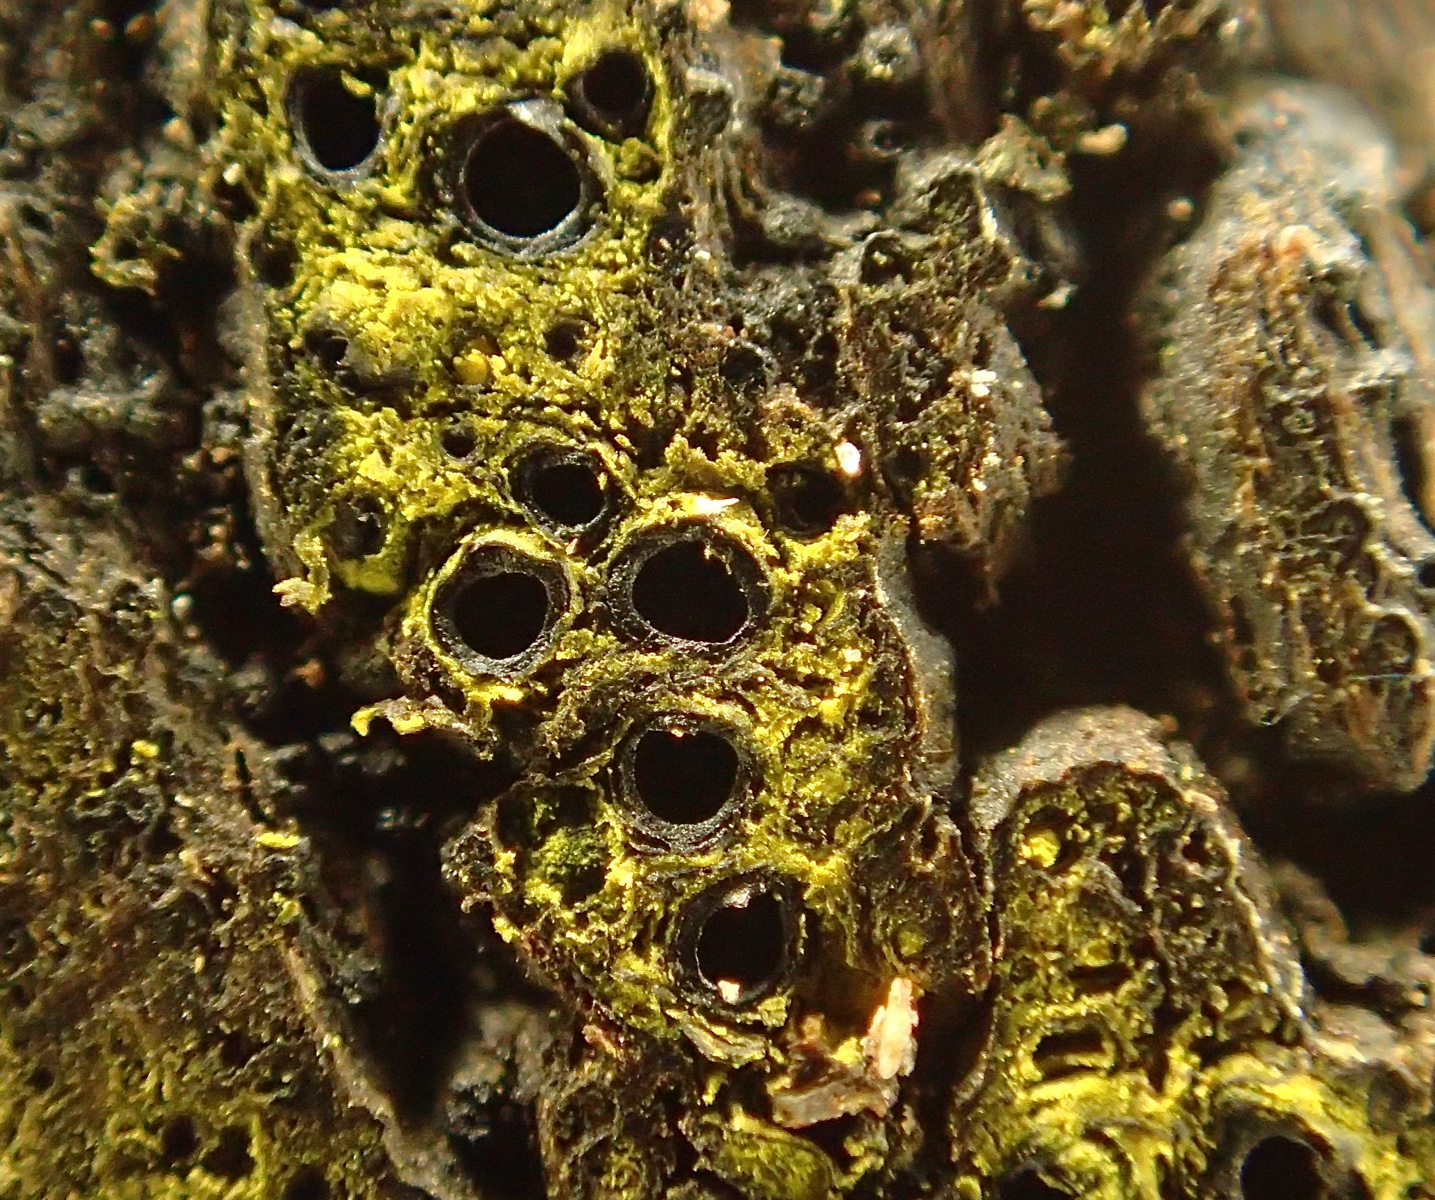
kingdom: Fungi
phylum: Ascomycota
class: Sordariomycetes
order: Xylariales
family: Diatrypaceae
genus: Eutypa
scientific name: Eutypa flavovirens
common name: grønkødet kulskorpe
